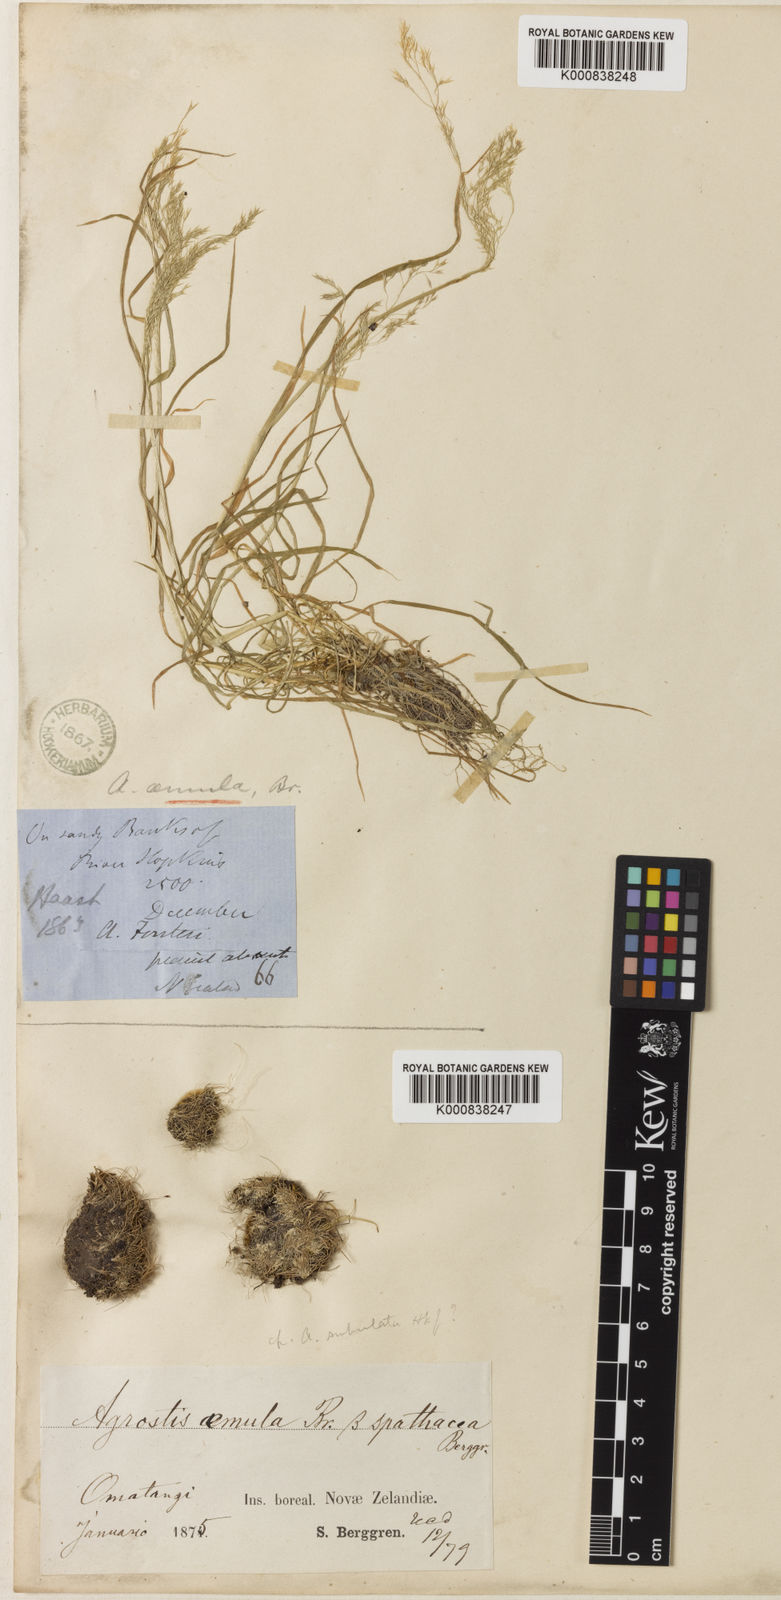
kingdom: Plantae
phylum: Tracheophyta
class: Liliopsida
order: Poales
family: Poaceae
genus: Agrostis
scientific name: Agrostis canina
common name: Velvet bent
